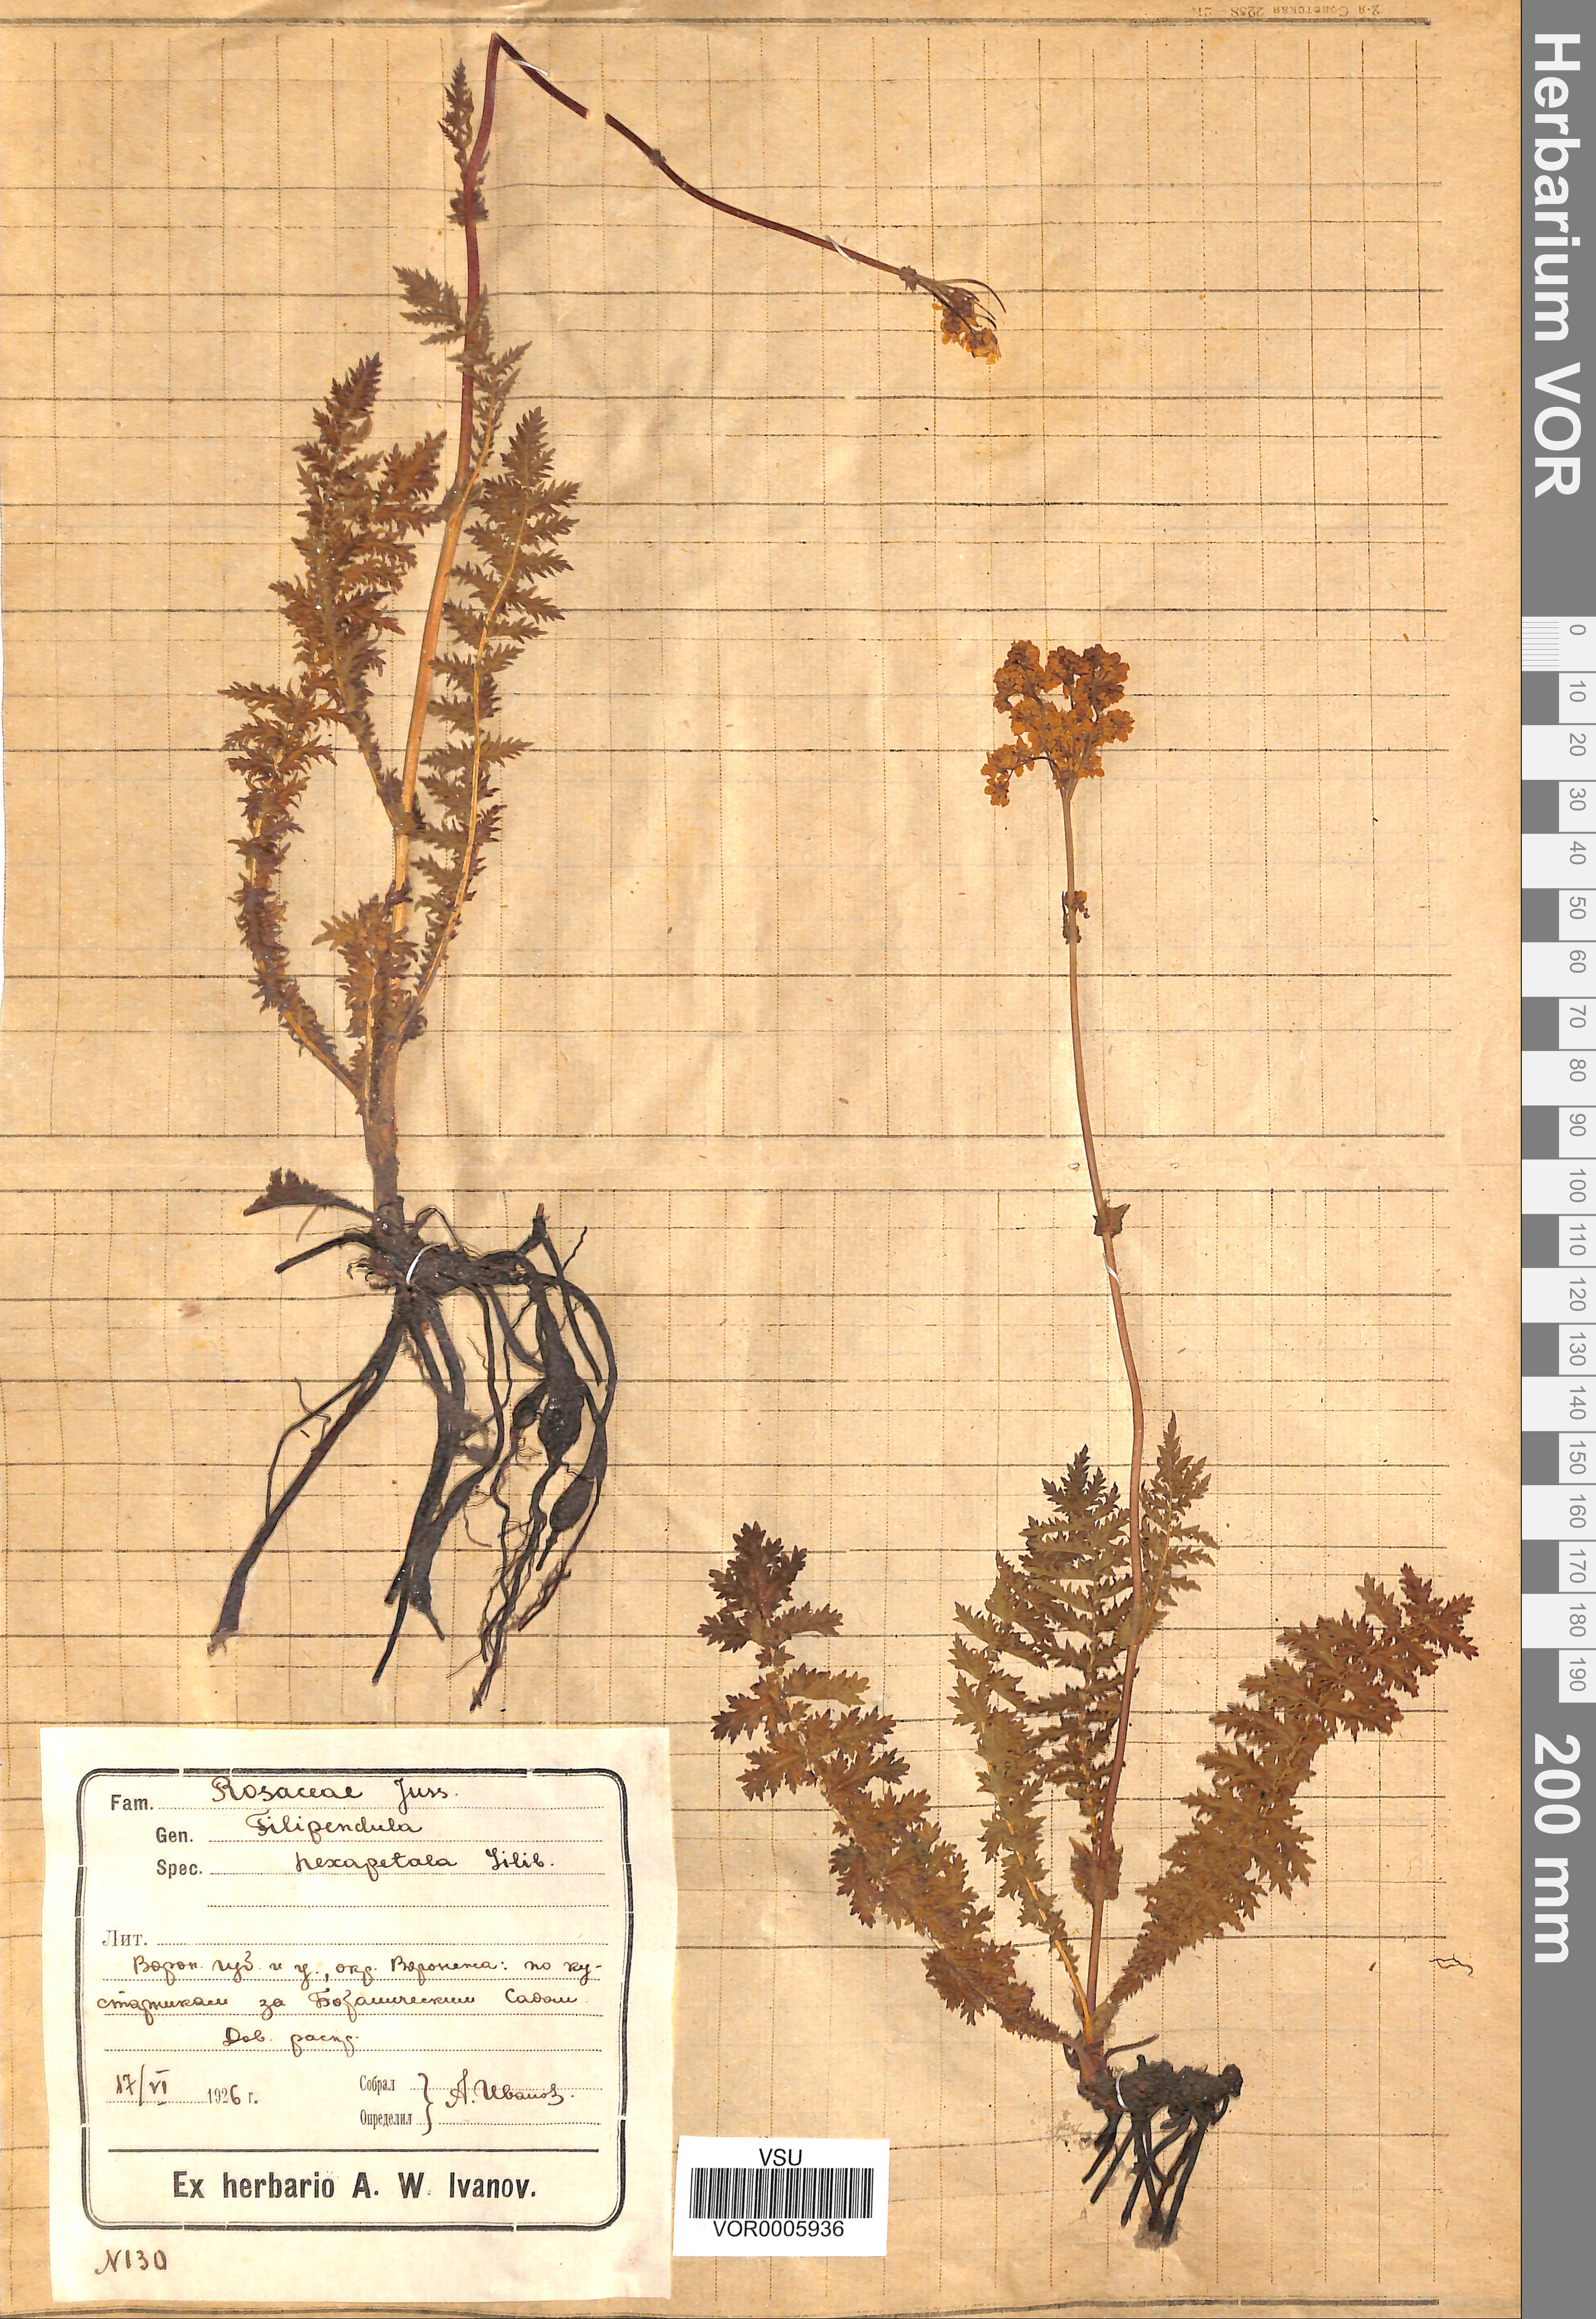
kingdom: Plantae
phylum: Tracheophyta
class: Magnoliopsida
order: Rosales
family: Rosaceae
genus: Filipendula
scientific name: Filipendula vulgaris
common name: Dropwort
